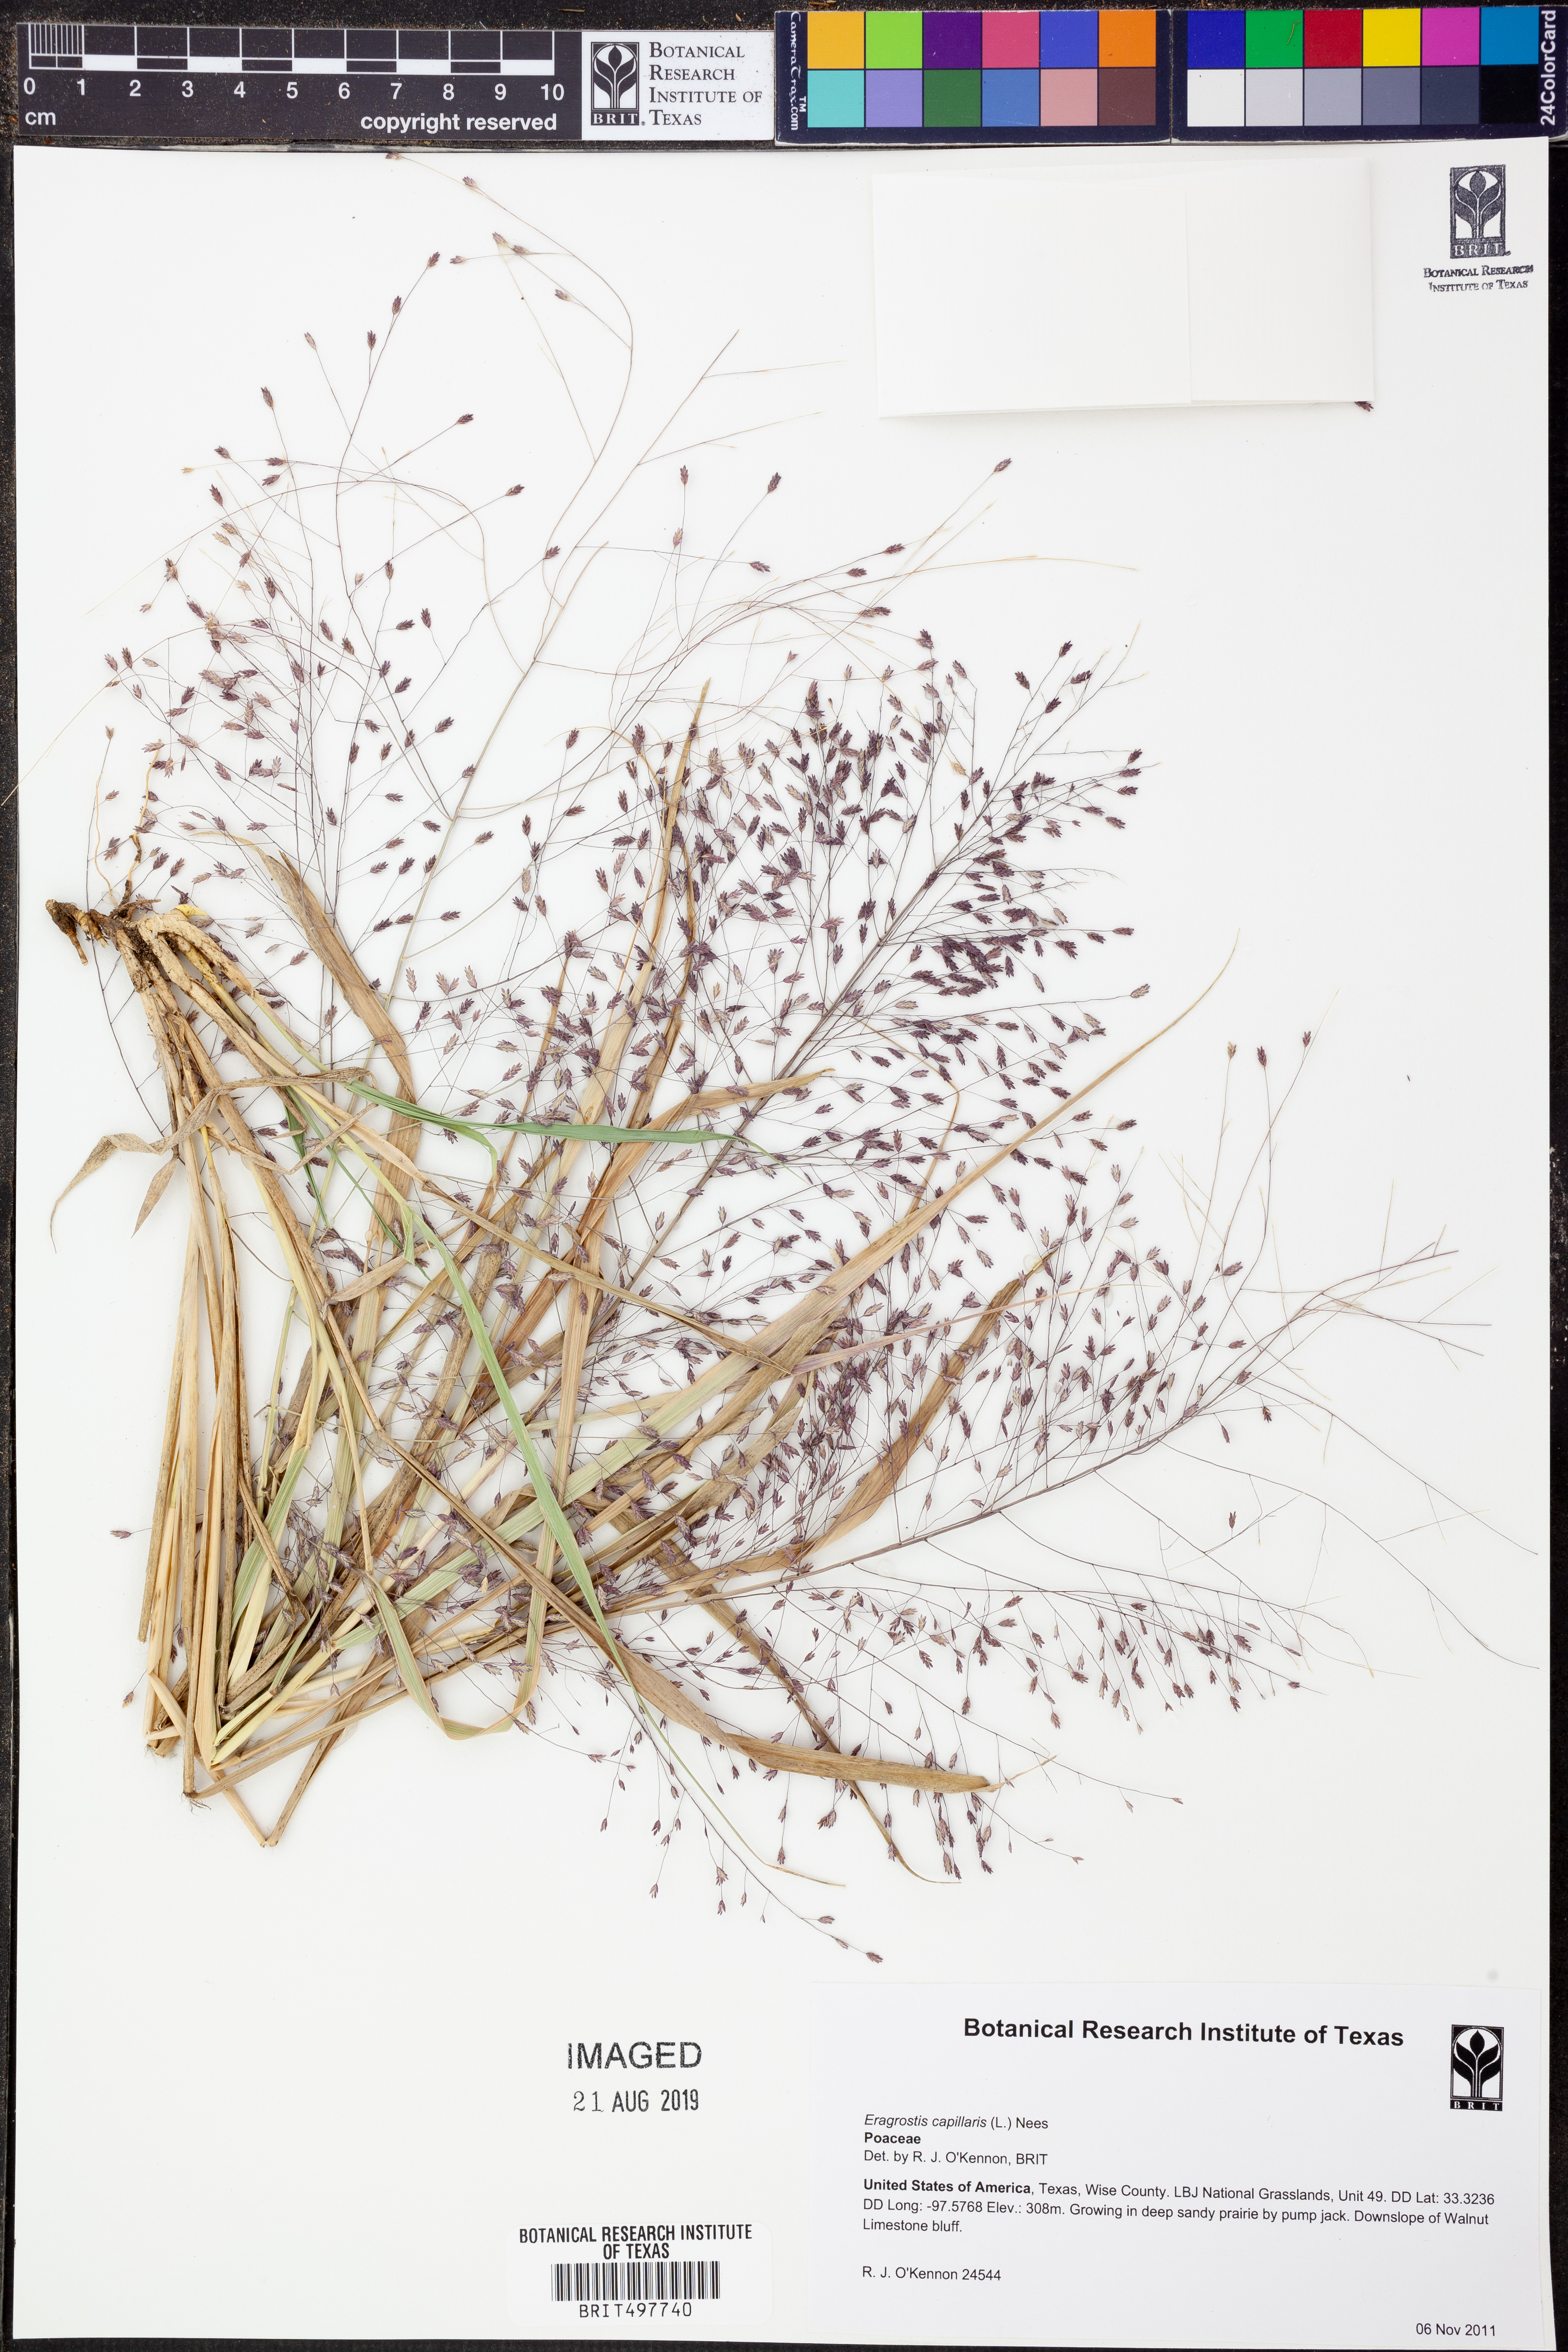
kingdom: Plantae
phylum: Tracheophyta
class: Liliopsida
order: Poales
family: Poaceae
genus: Eragrostis
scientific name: Eragrostis capillaris
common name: Hair-like lovegrass
